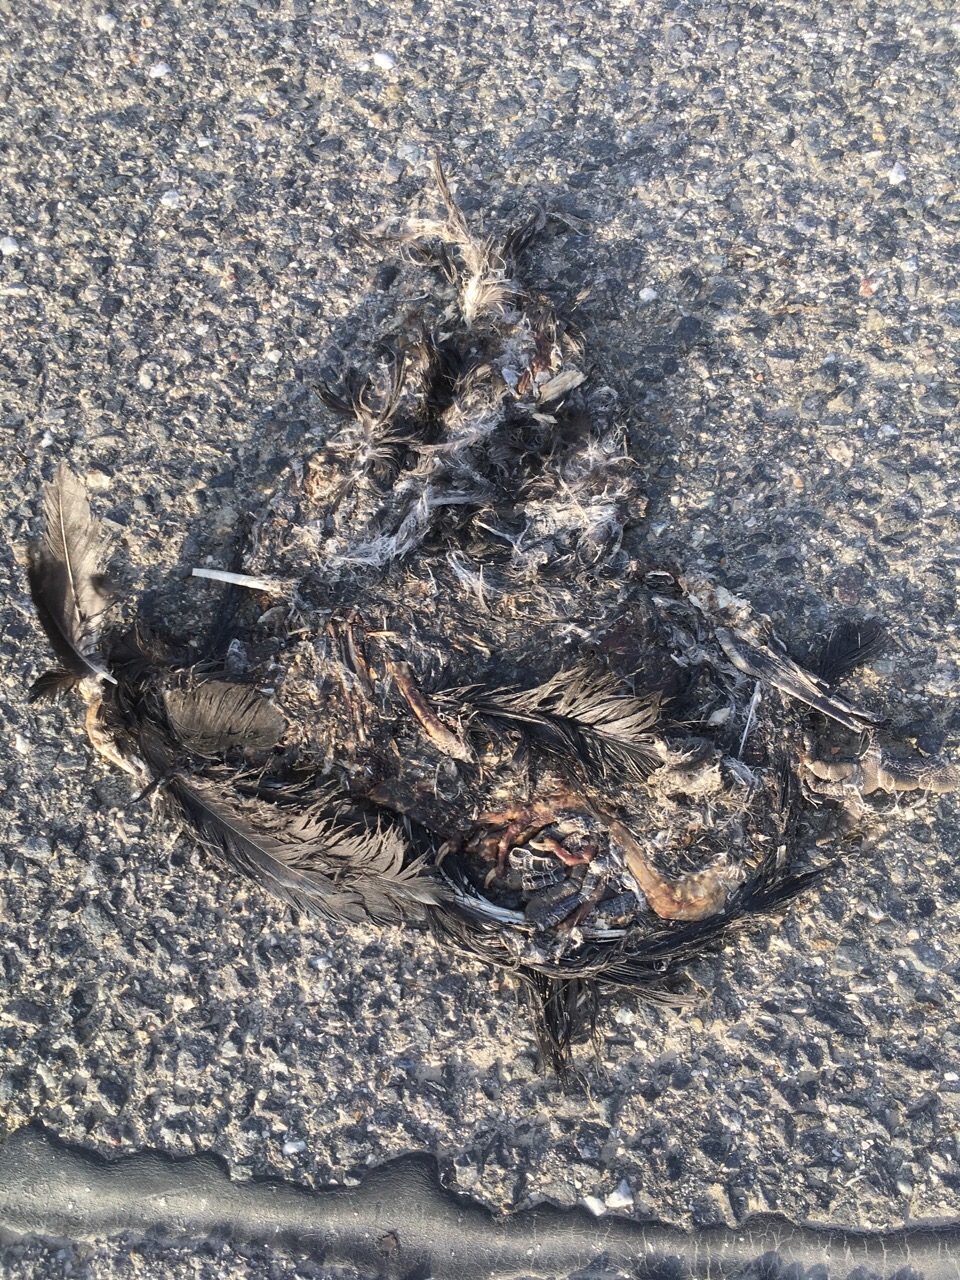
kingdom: Animalia
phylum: Chordata
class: Aves
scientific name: Aves
